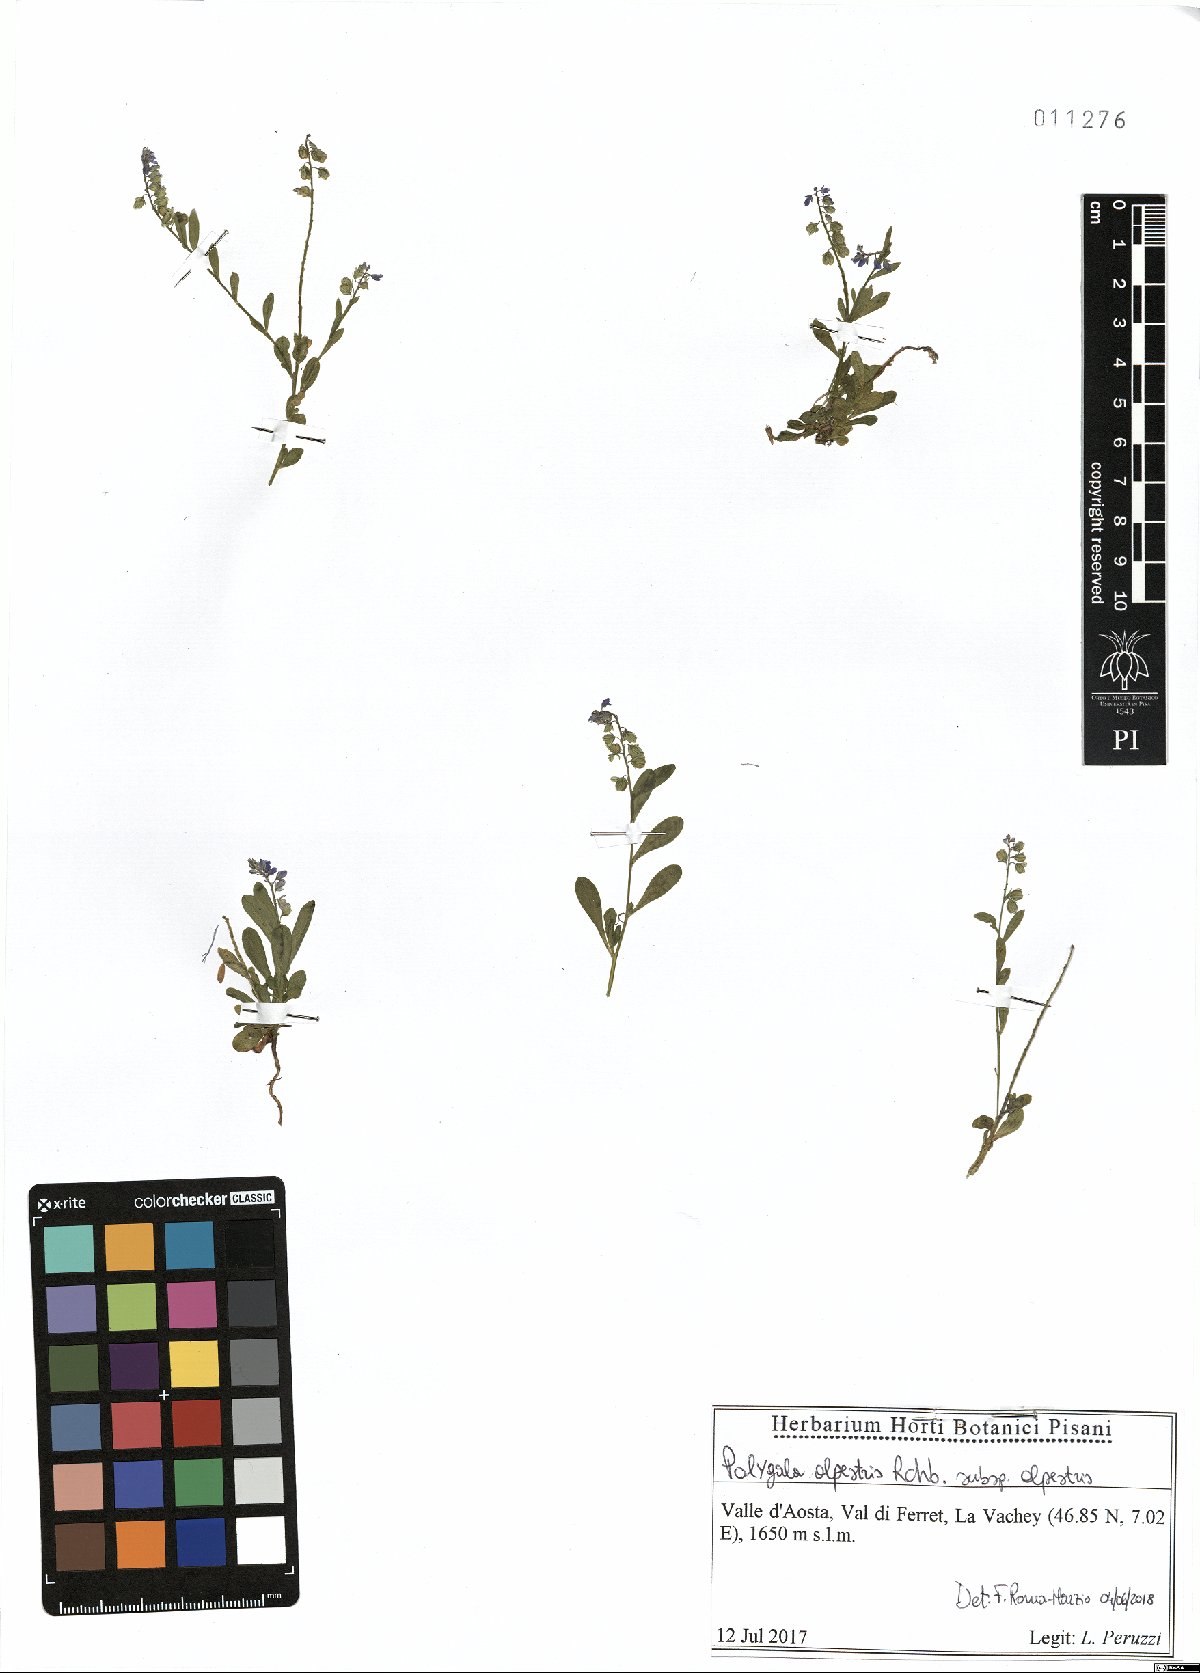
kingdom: Plantae
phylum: Tracheophyta
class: Magnoliopsida
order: Fabales
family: Polygalaceae
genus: Polygala
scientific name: Polygala alpestris
